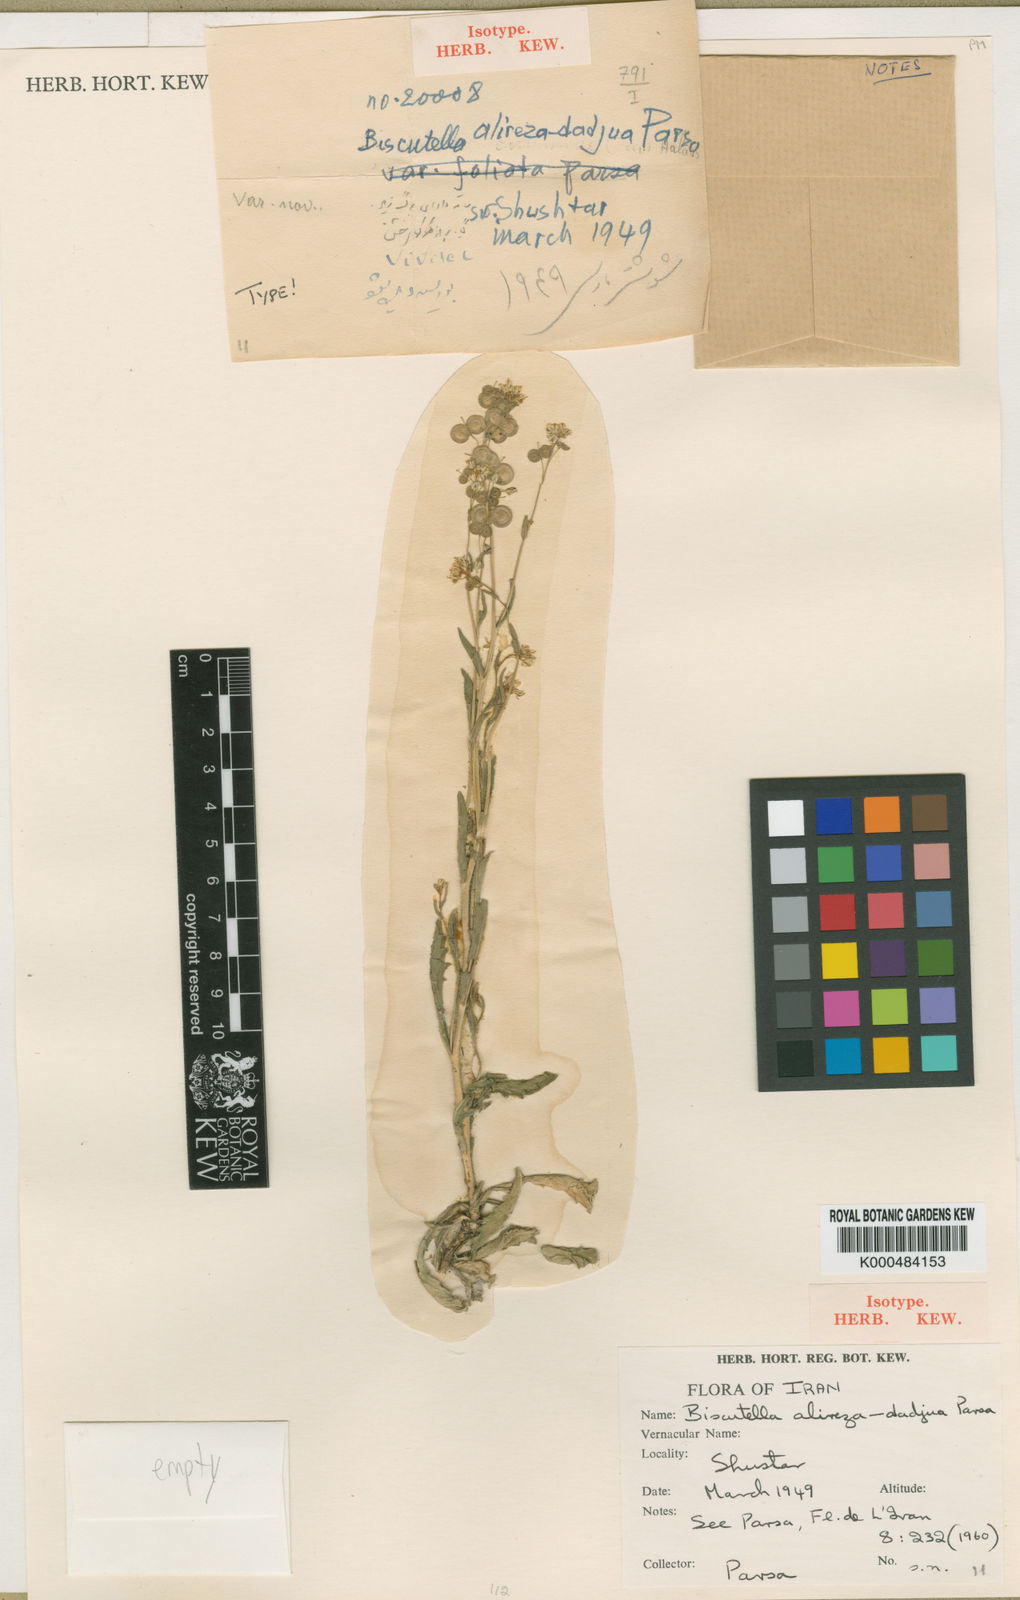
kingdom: Plantae
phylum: Tracheophyta
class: Magnoliopsida
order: Brassicales
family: Brassicaceae
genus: Biscutella
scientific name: Biscutella alireza-dadjua
